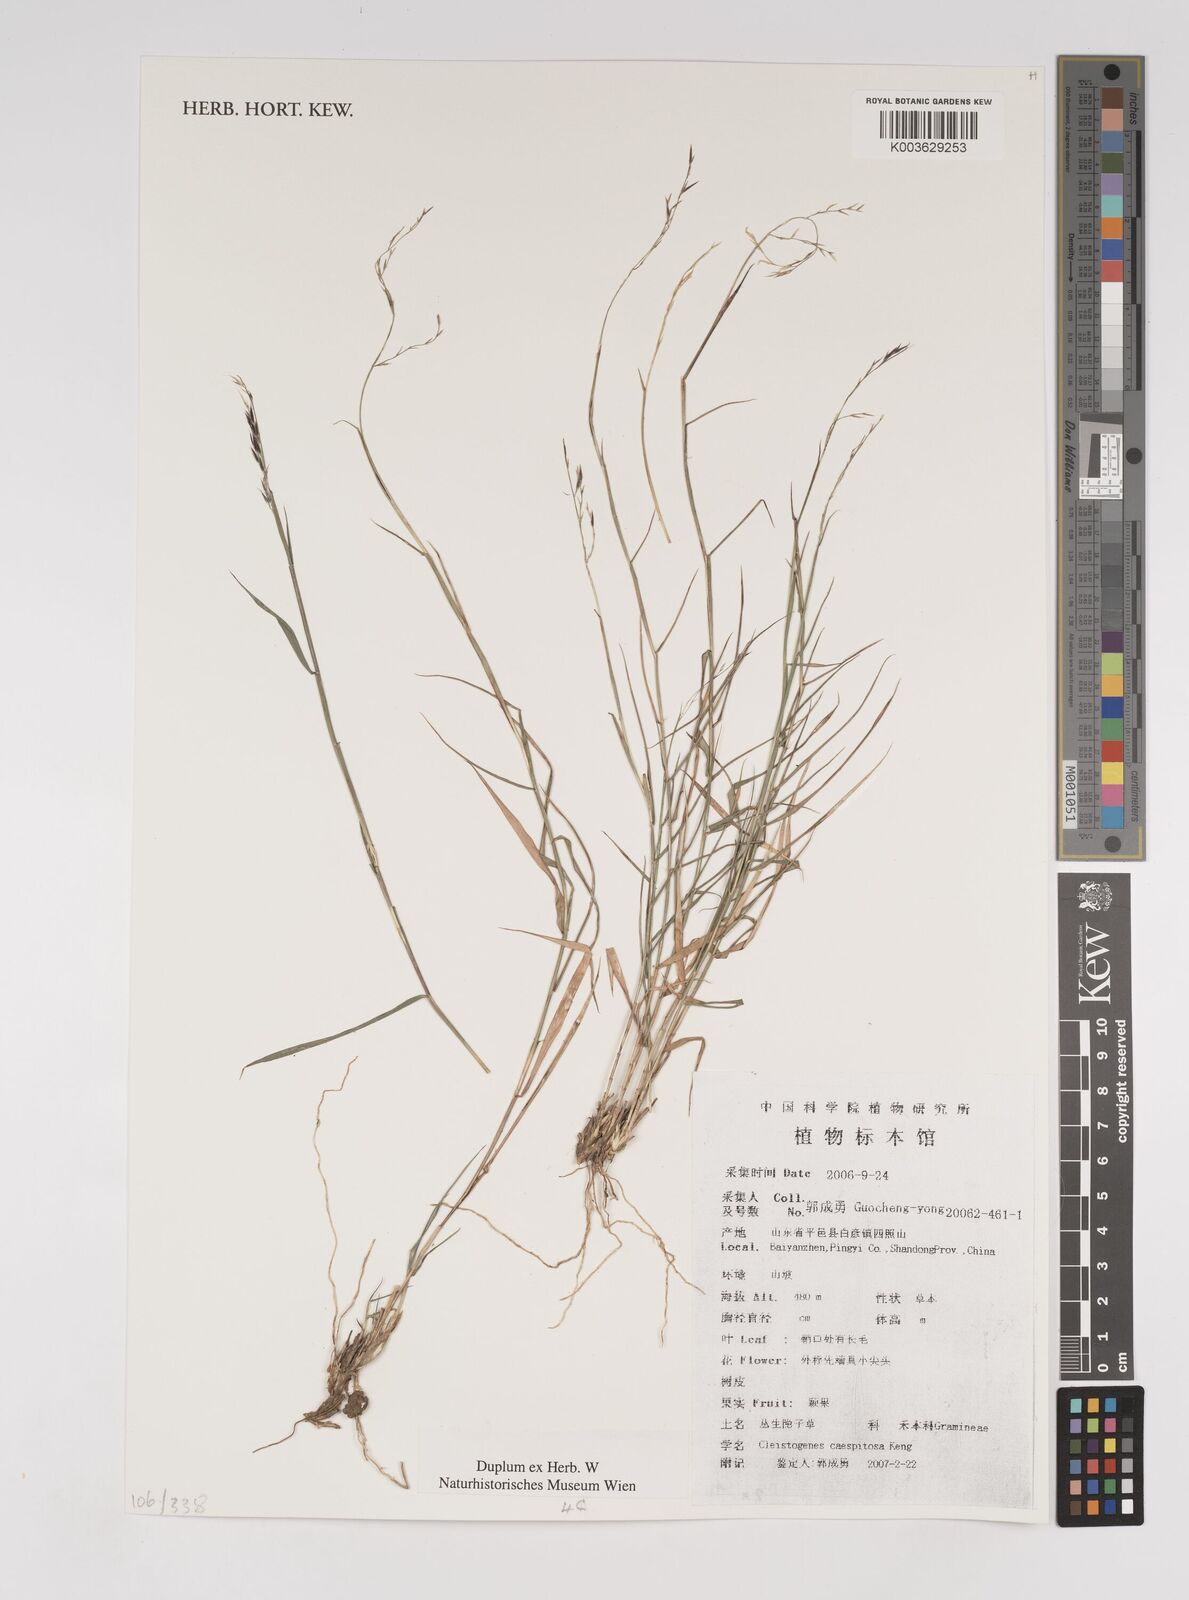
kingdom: Plantae
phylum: Tracheophyta
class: Liliopsida
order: Poales
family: Poaceae
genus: Cleistogenes
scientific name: Cleistogenes caespitosa
